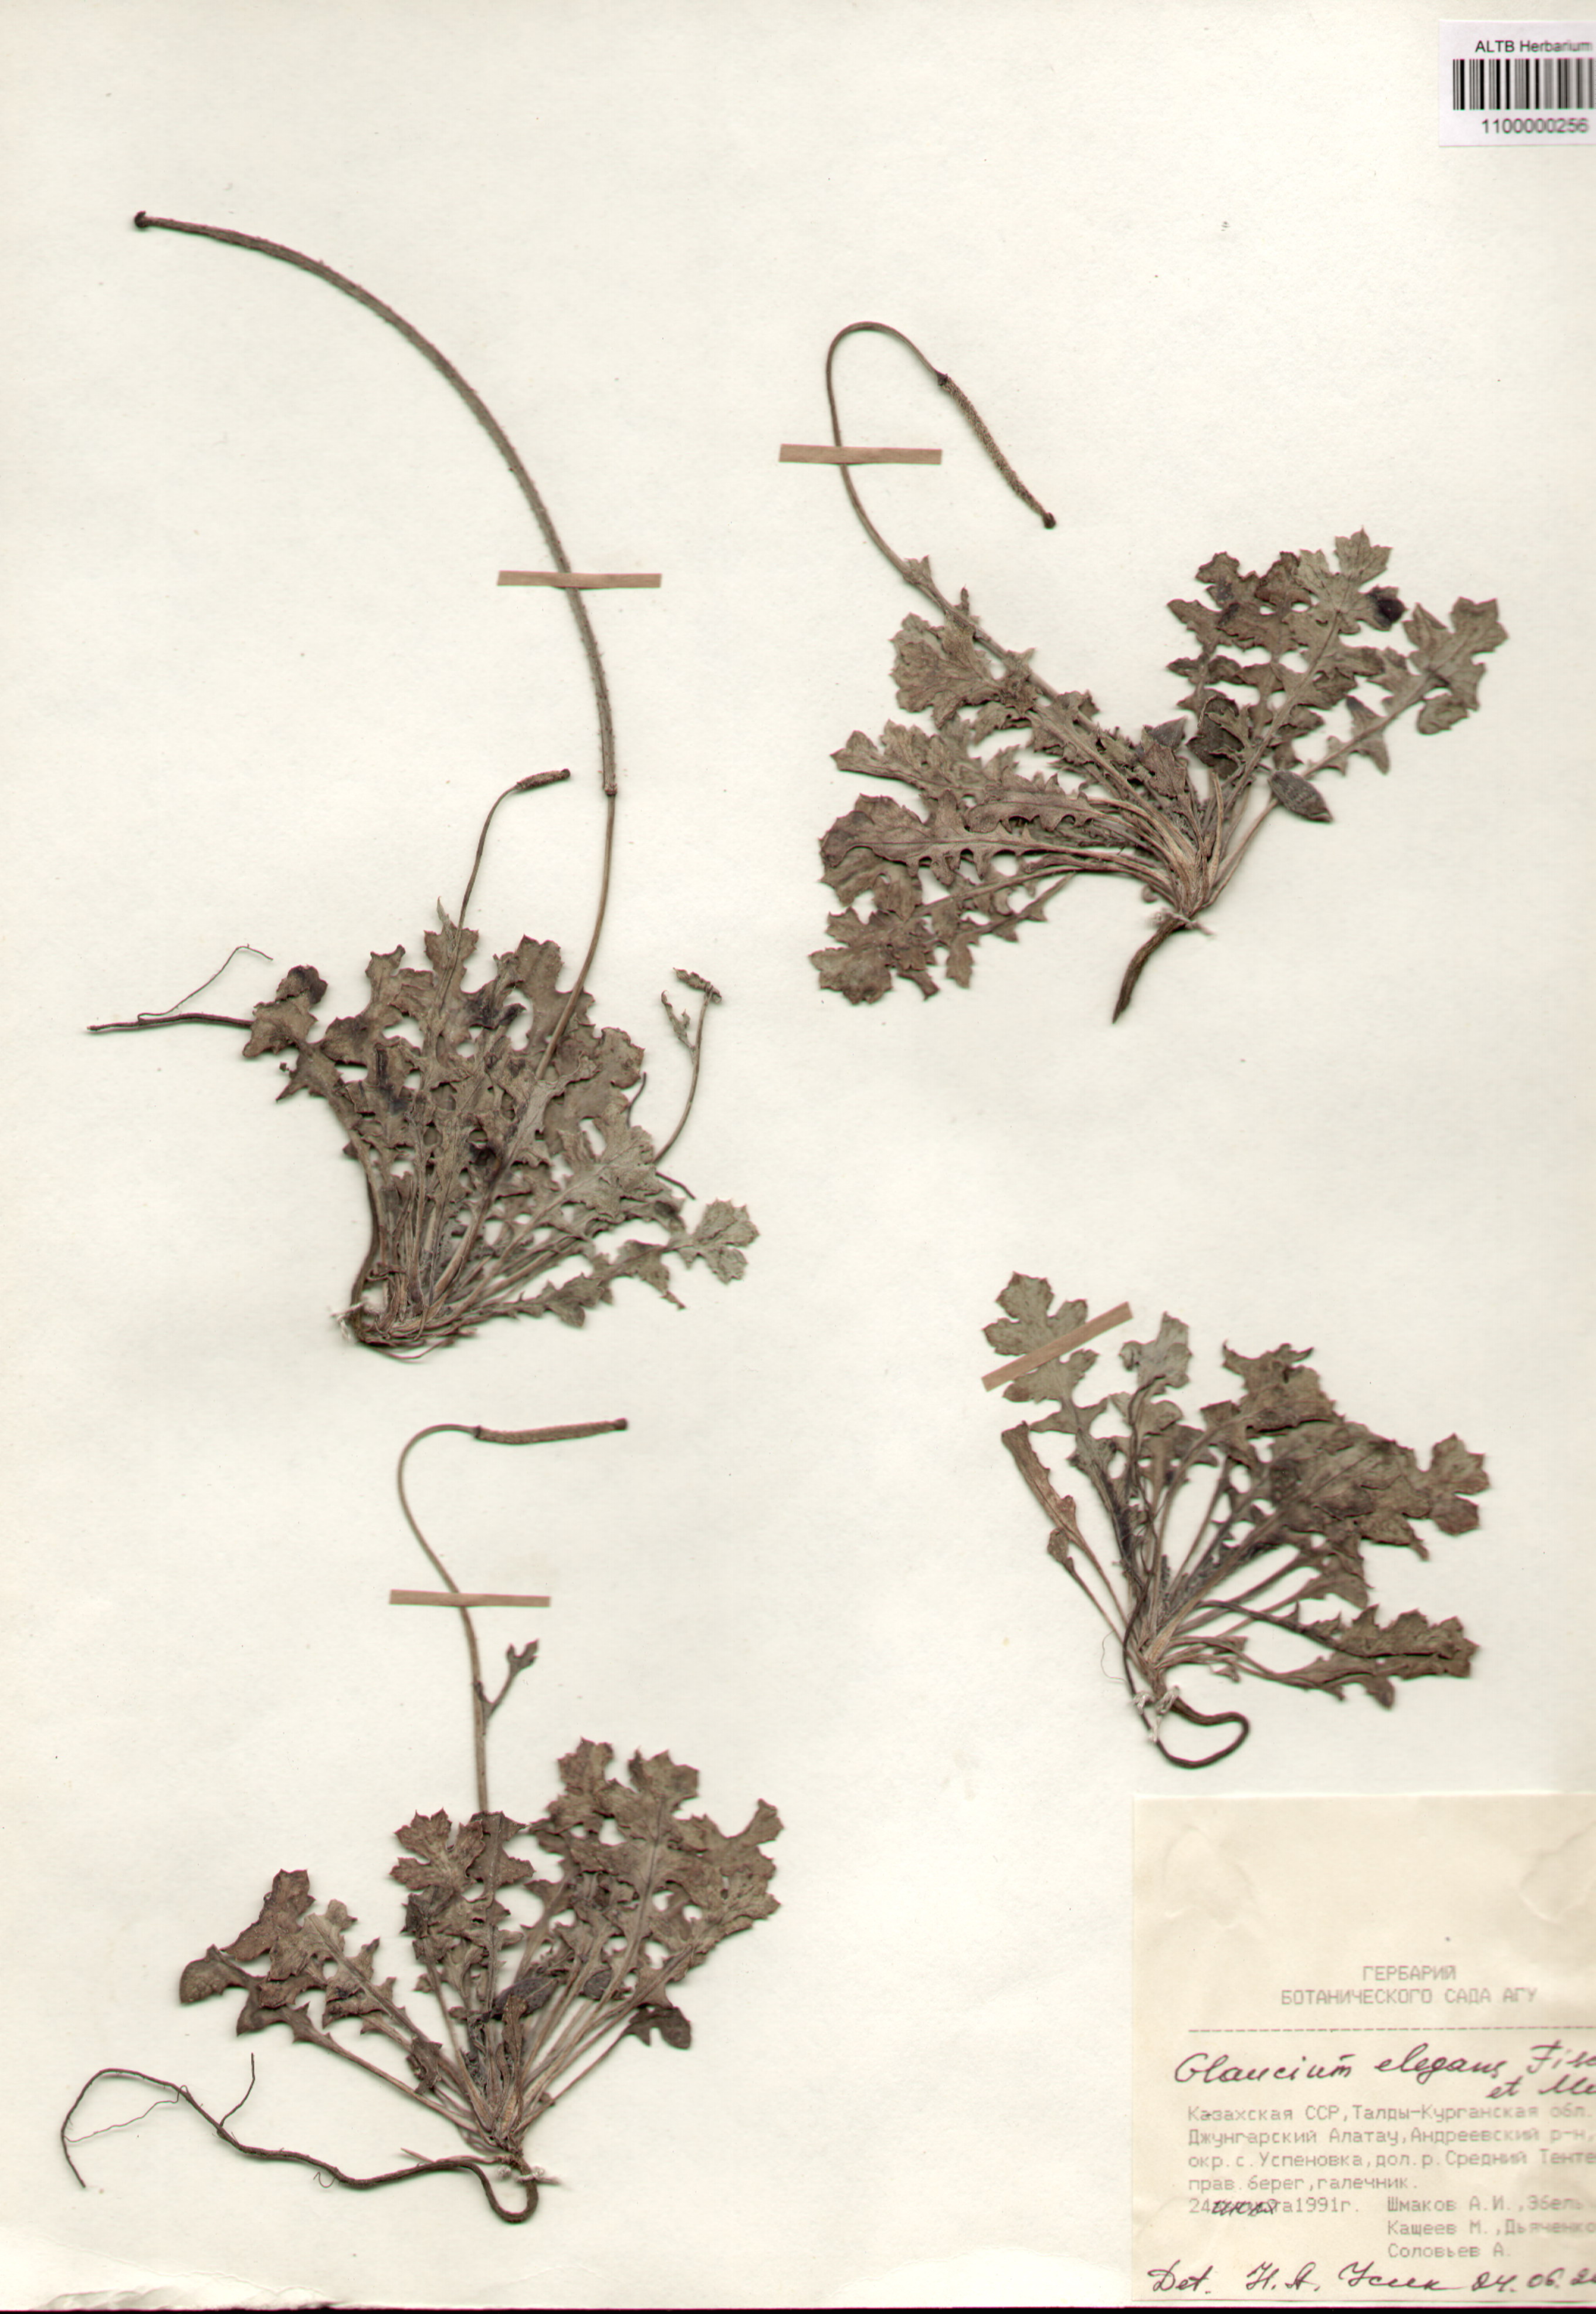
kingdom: Plantae
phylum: Tracheophyta
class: Magnoliopsida
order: Ranunculales
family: Papaveraceae
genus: Glaucium
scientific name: Glaucium elegans
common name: Annual horned-poppy
